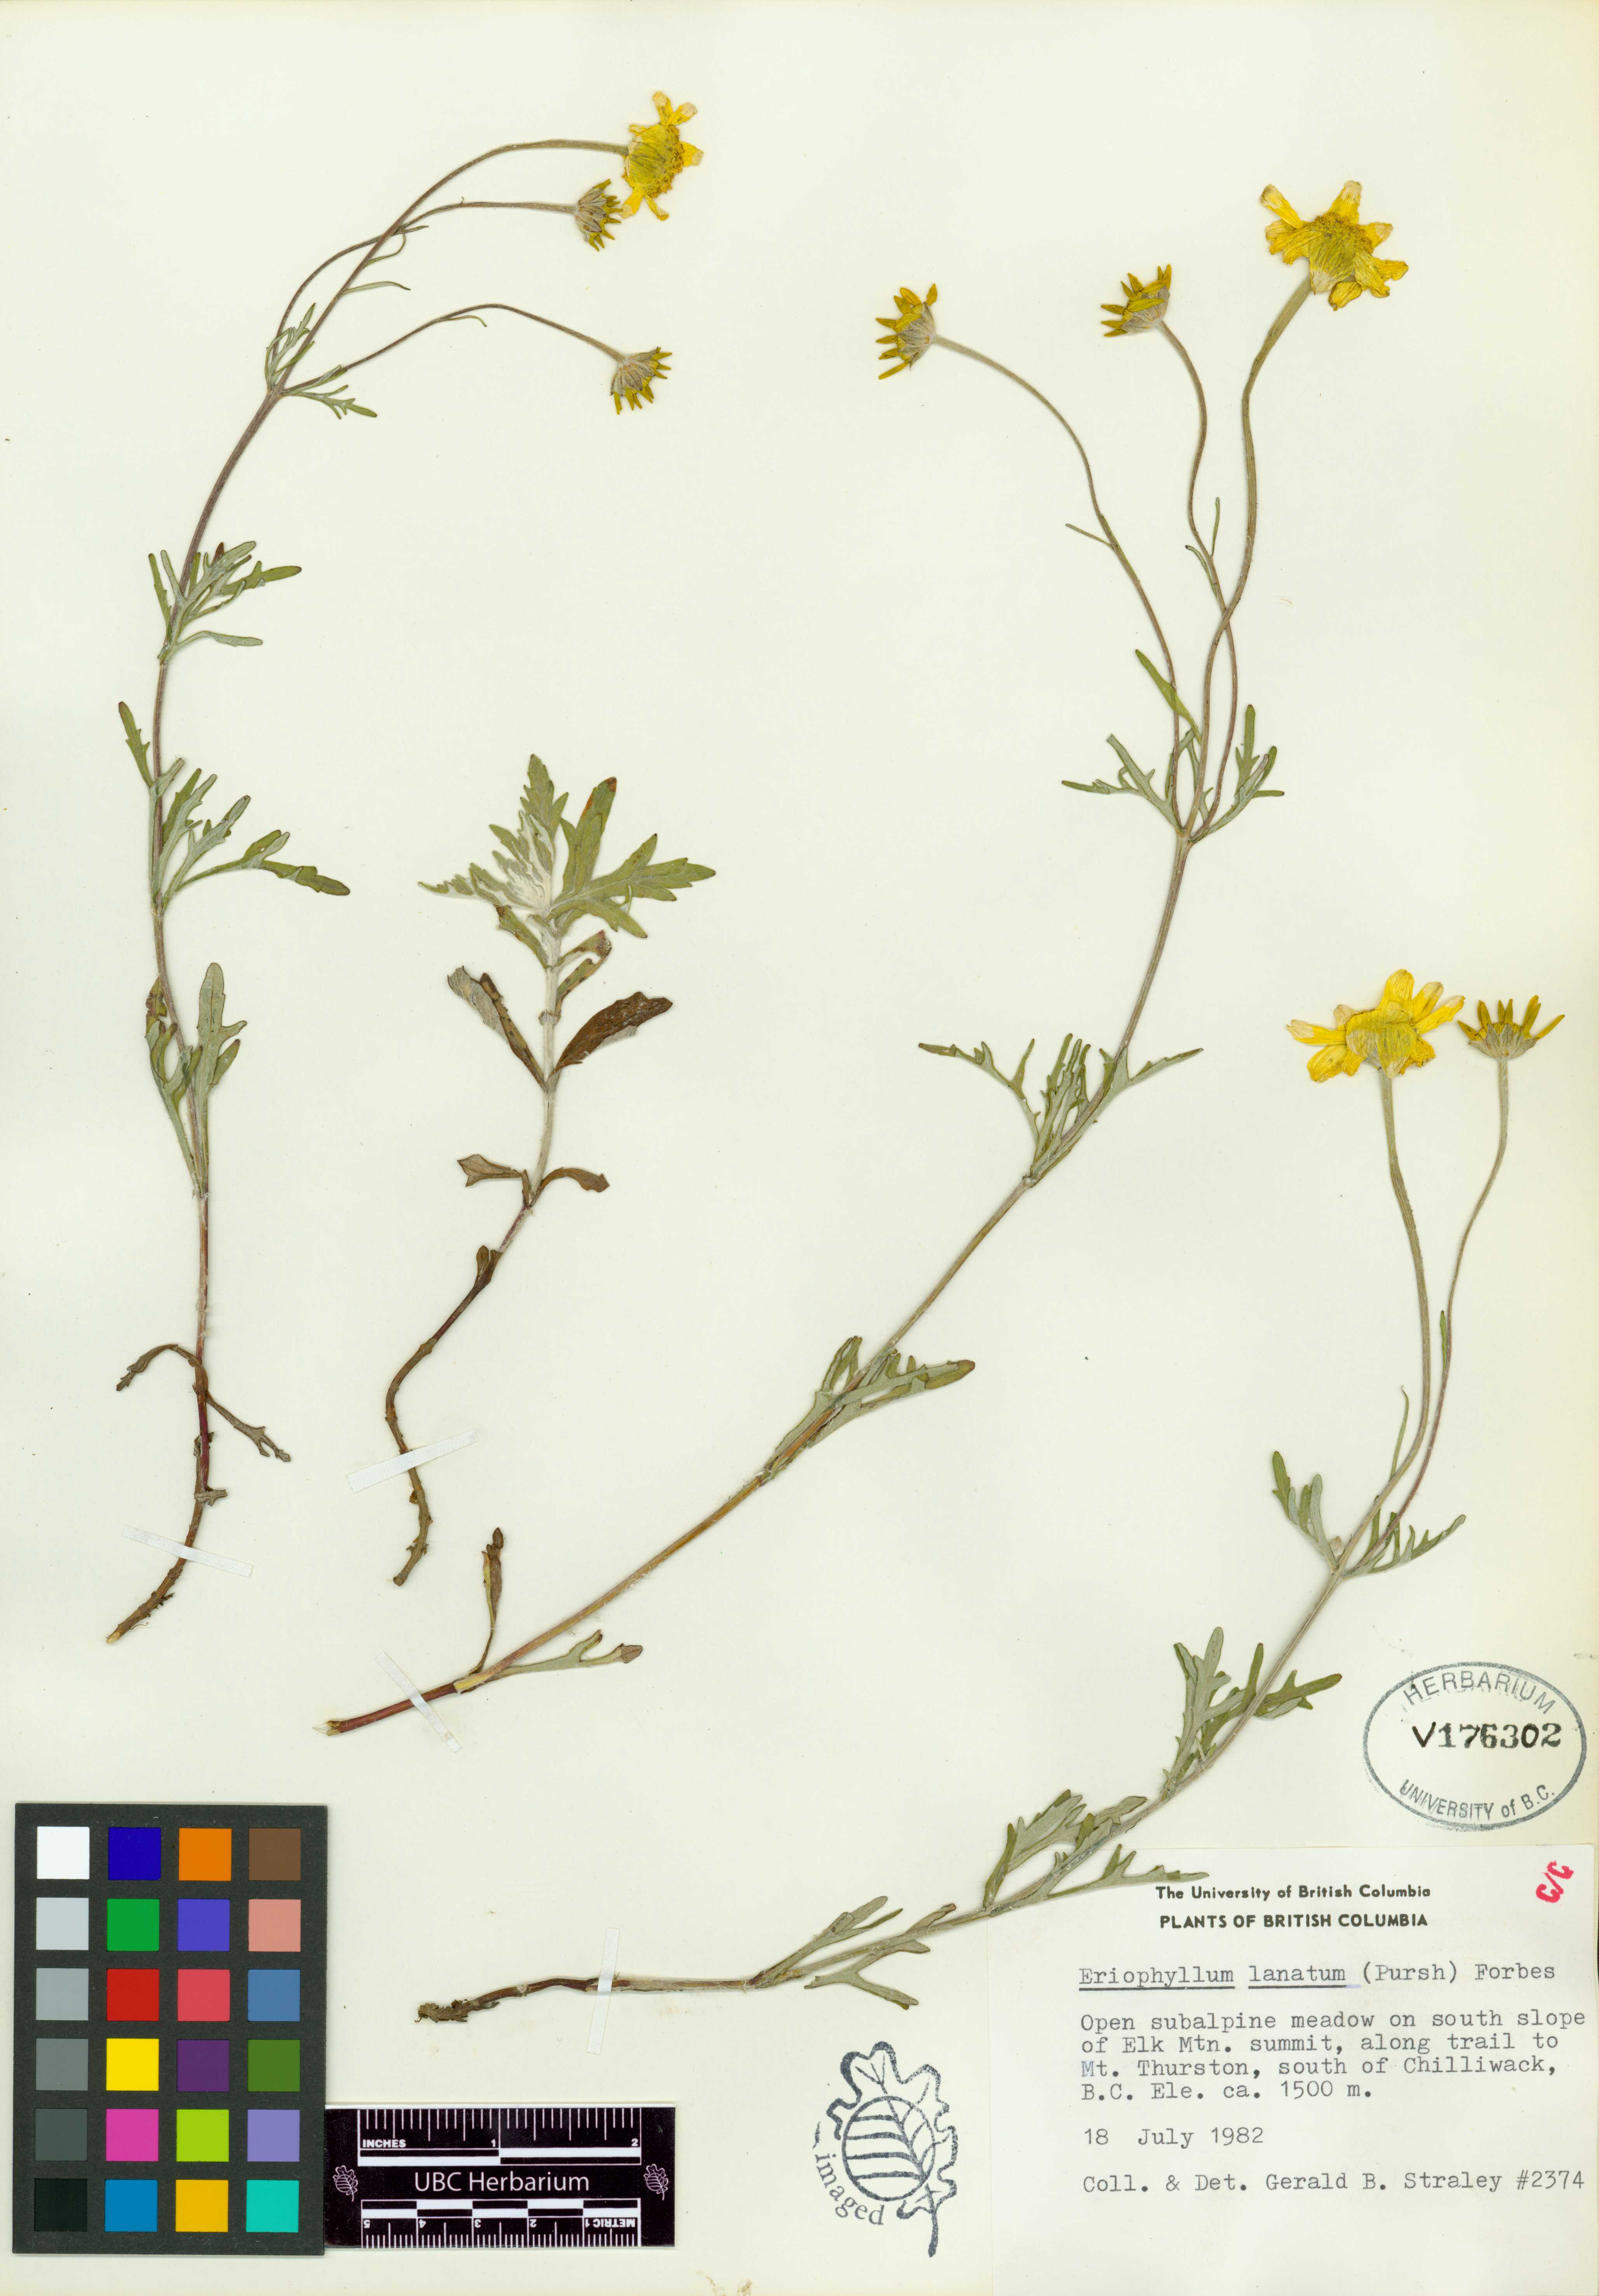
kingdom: Plantae
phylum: Tracheophyta
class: Magnoliopsida
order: Asterales
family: Asteraceae
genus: Eriophyllum
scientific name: Eriophyllum lanatum
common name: Common woolly-sunflower
